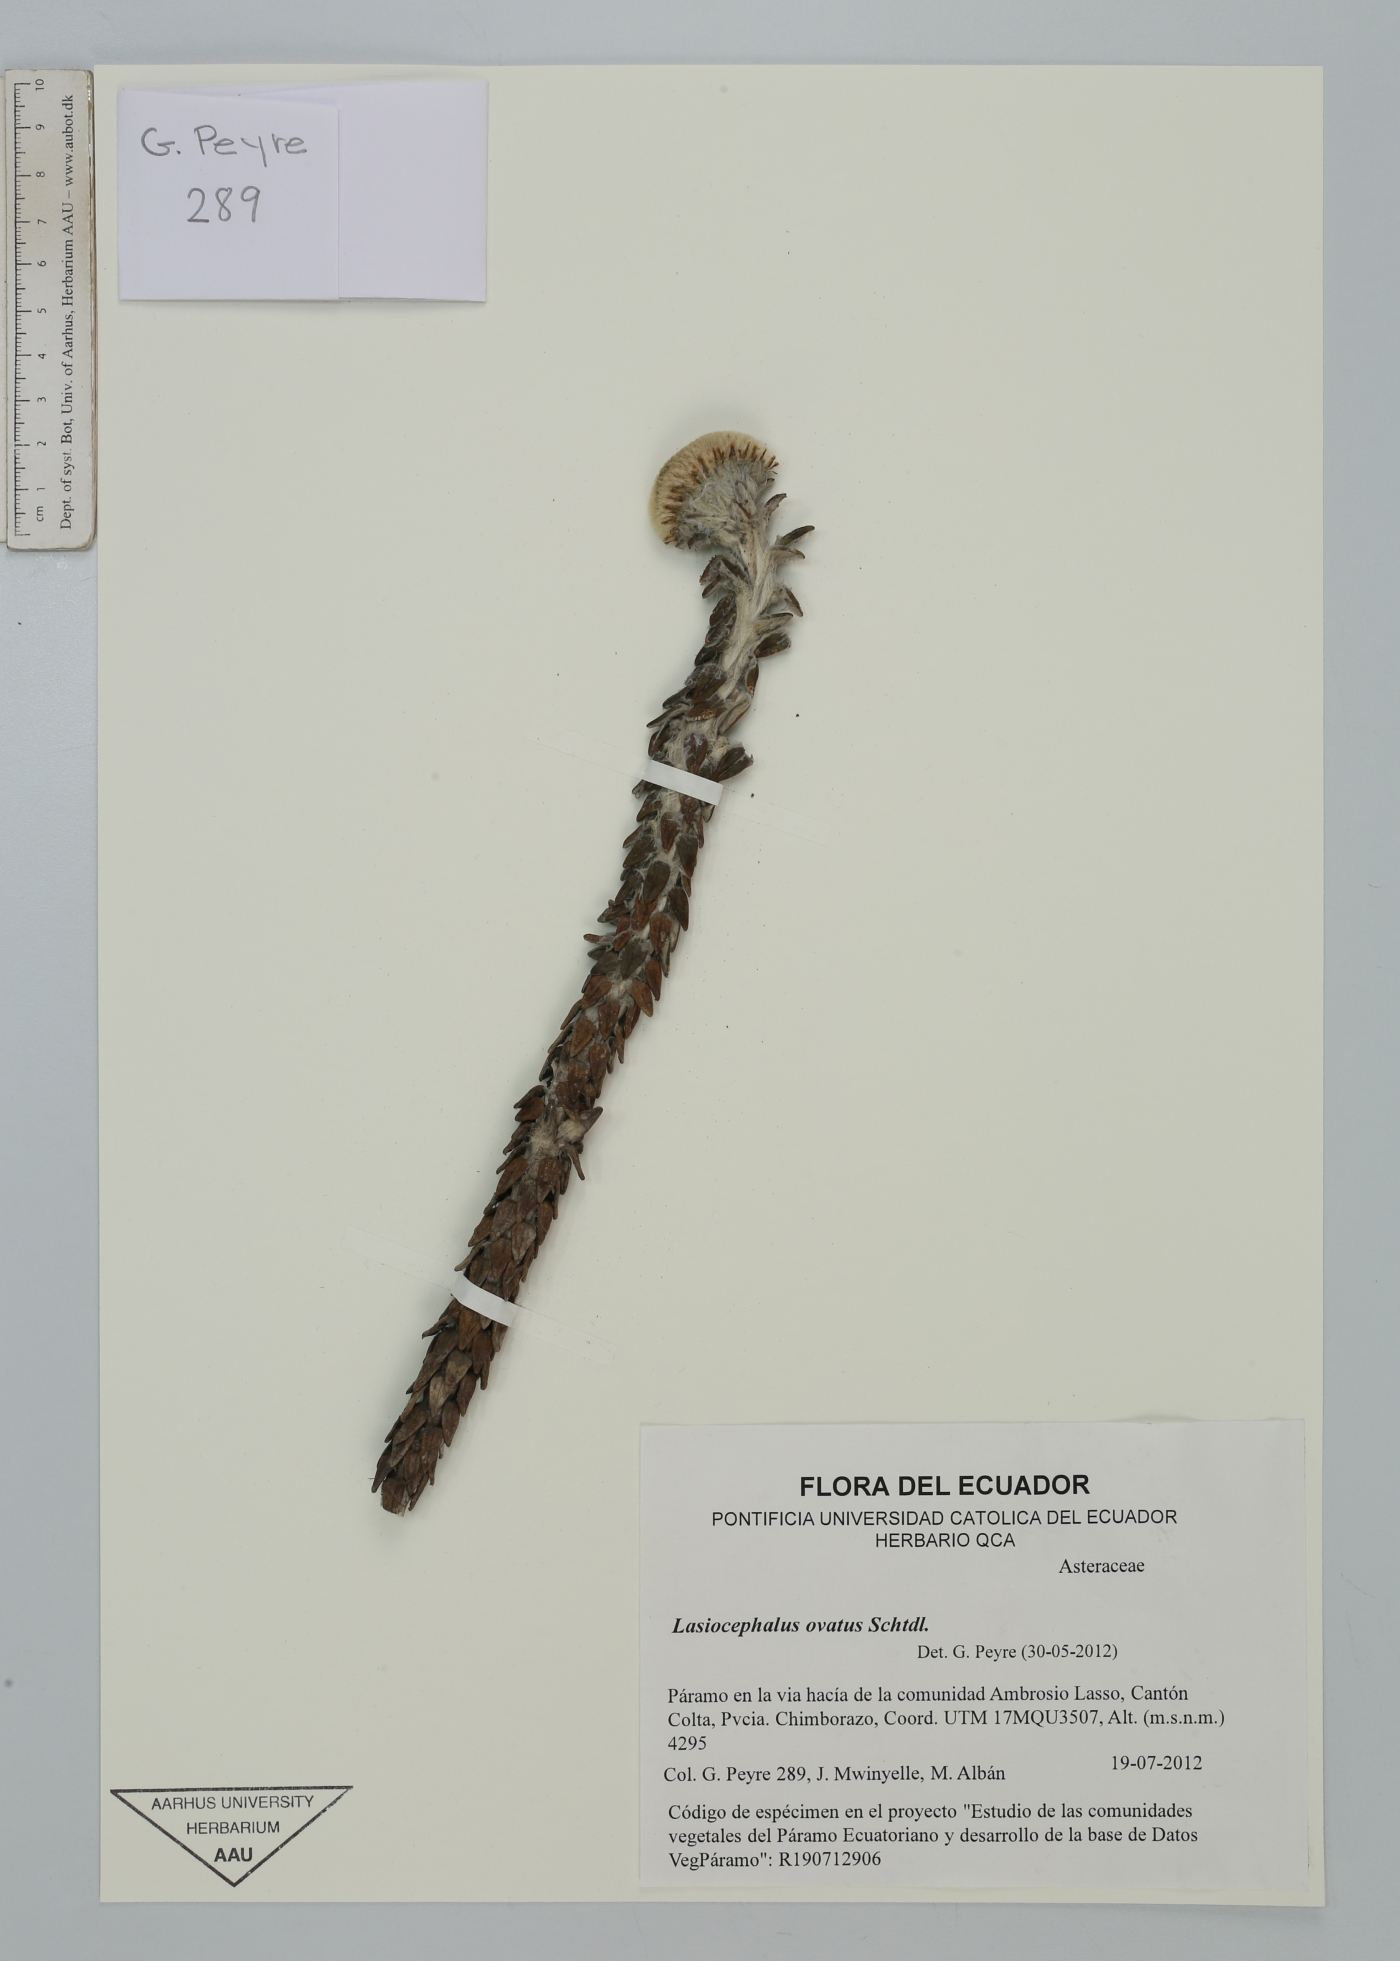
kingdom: Plantae
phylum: Tracheophyta
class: Magnoliopsida
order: Asterales
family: Asteraceae
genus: Lasiocephalus
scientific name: Lasiocephalus ovatus
